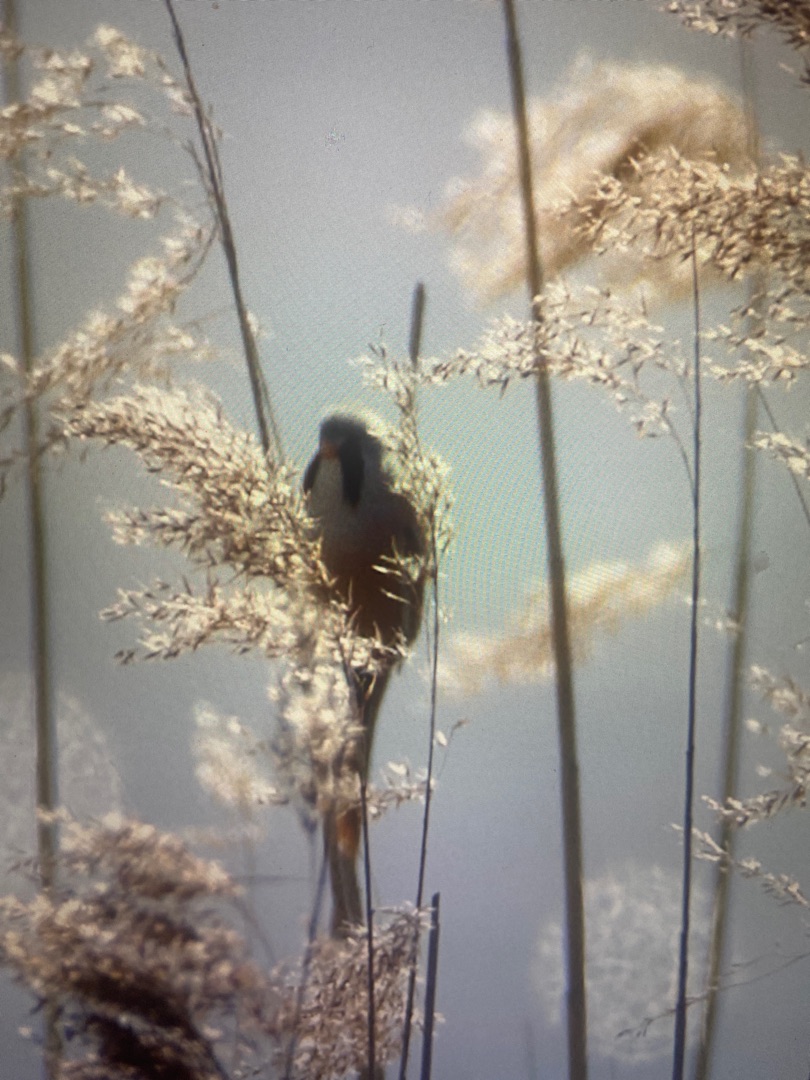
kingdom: Animalia
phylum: Chordata
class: Aves
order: Passeriformes
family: Panuridae
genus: Panurus
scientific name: Panurus biarmicus
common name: Skægmejse
